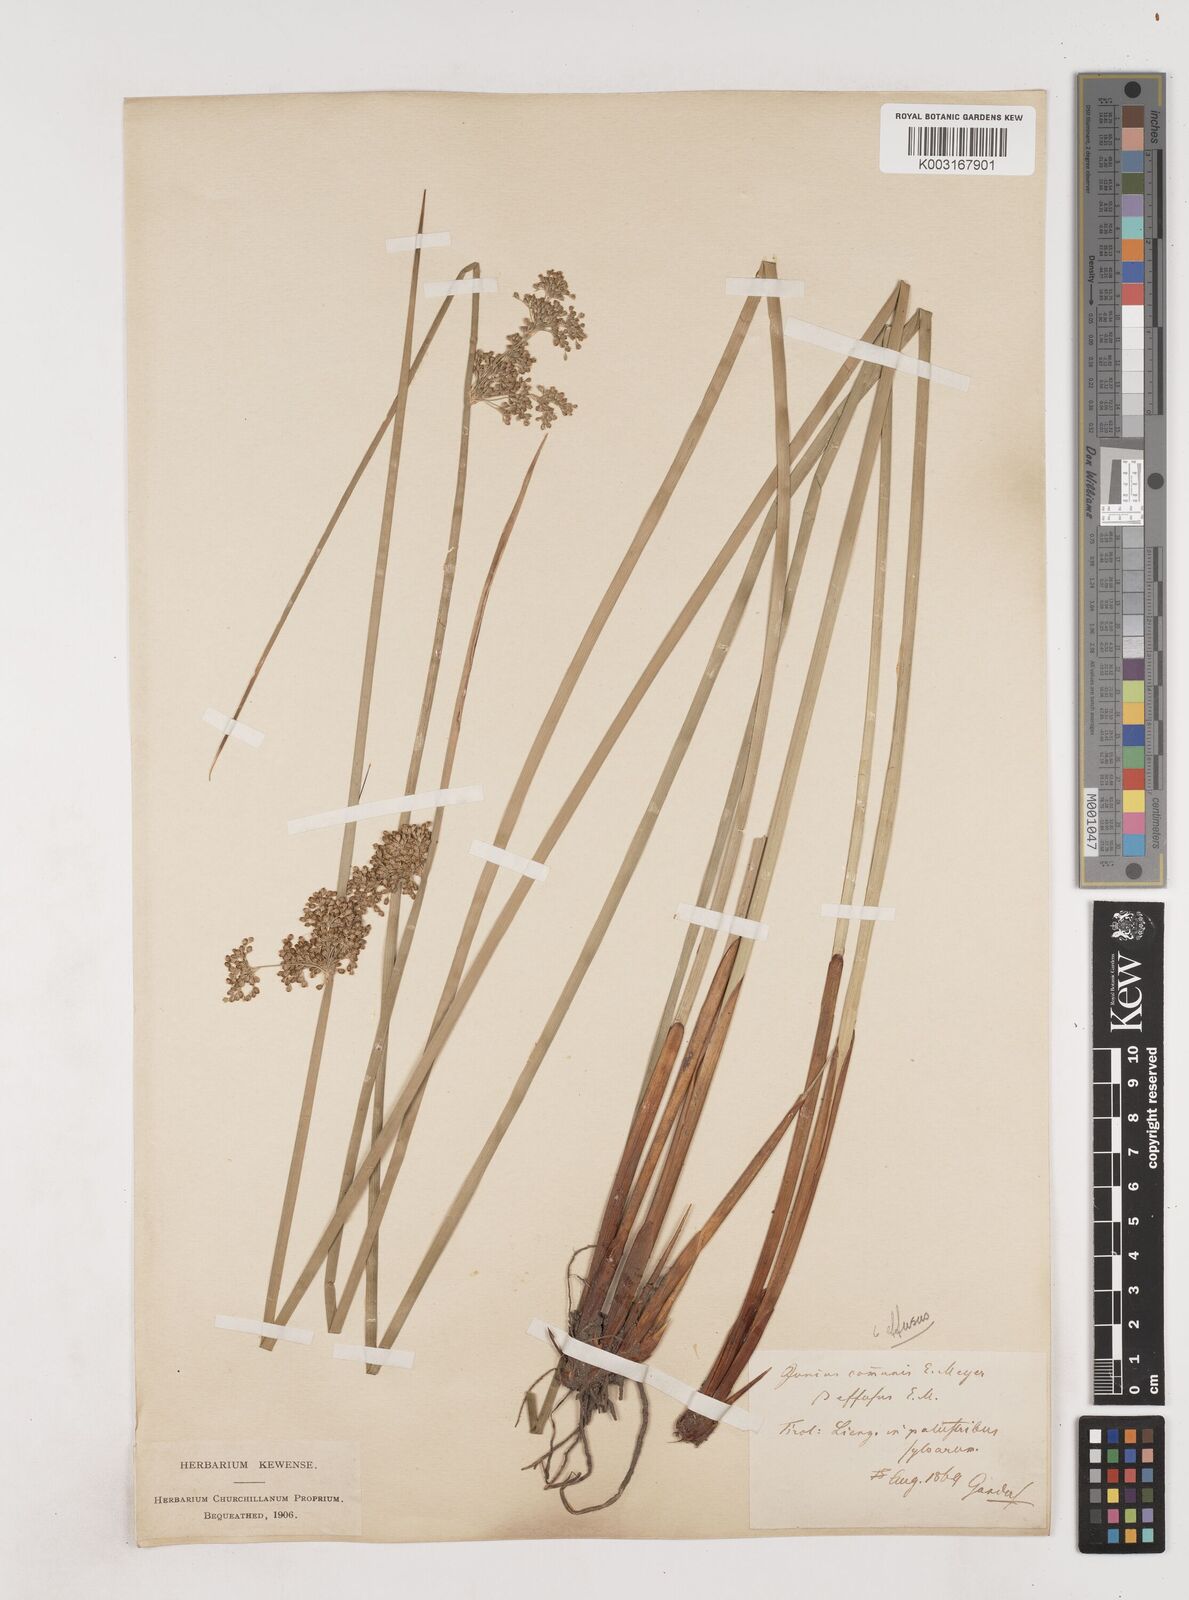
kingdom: Plantae
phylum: Tracheophyta
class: Liliopsida
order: Poales
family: Juncaceae
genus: Juncus
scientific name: Juncus effusus
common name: Soft rush
